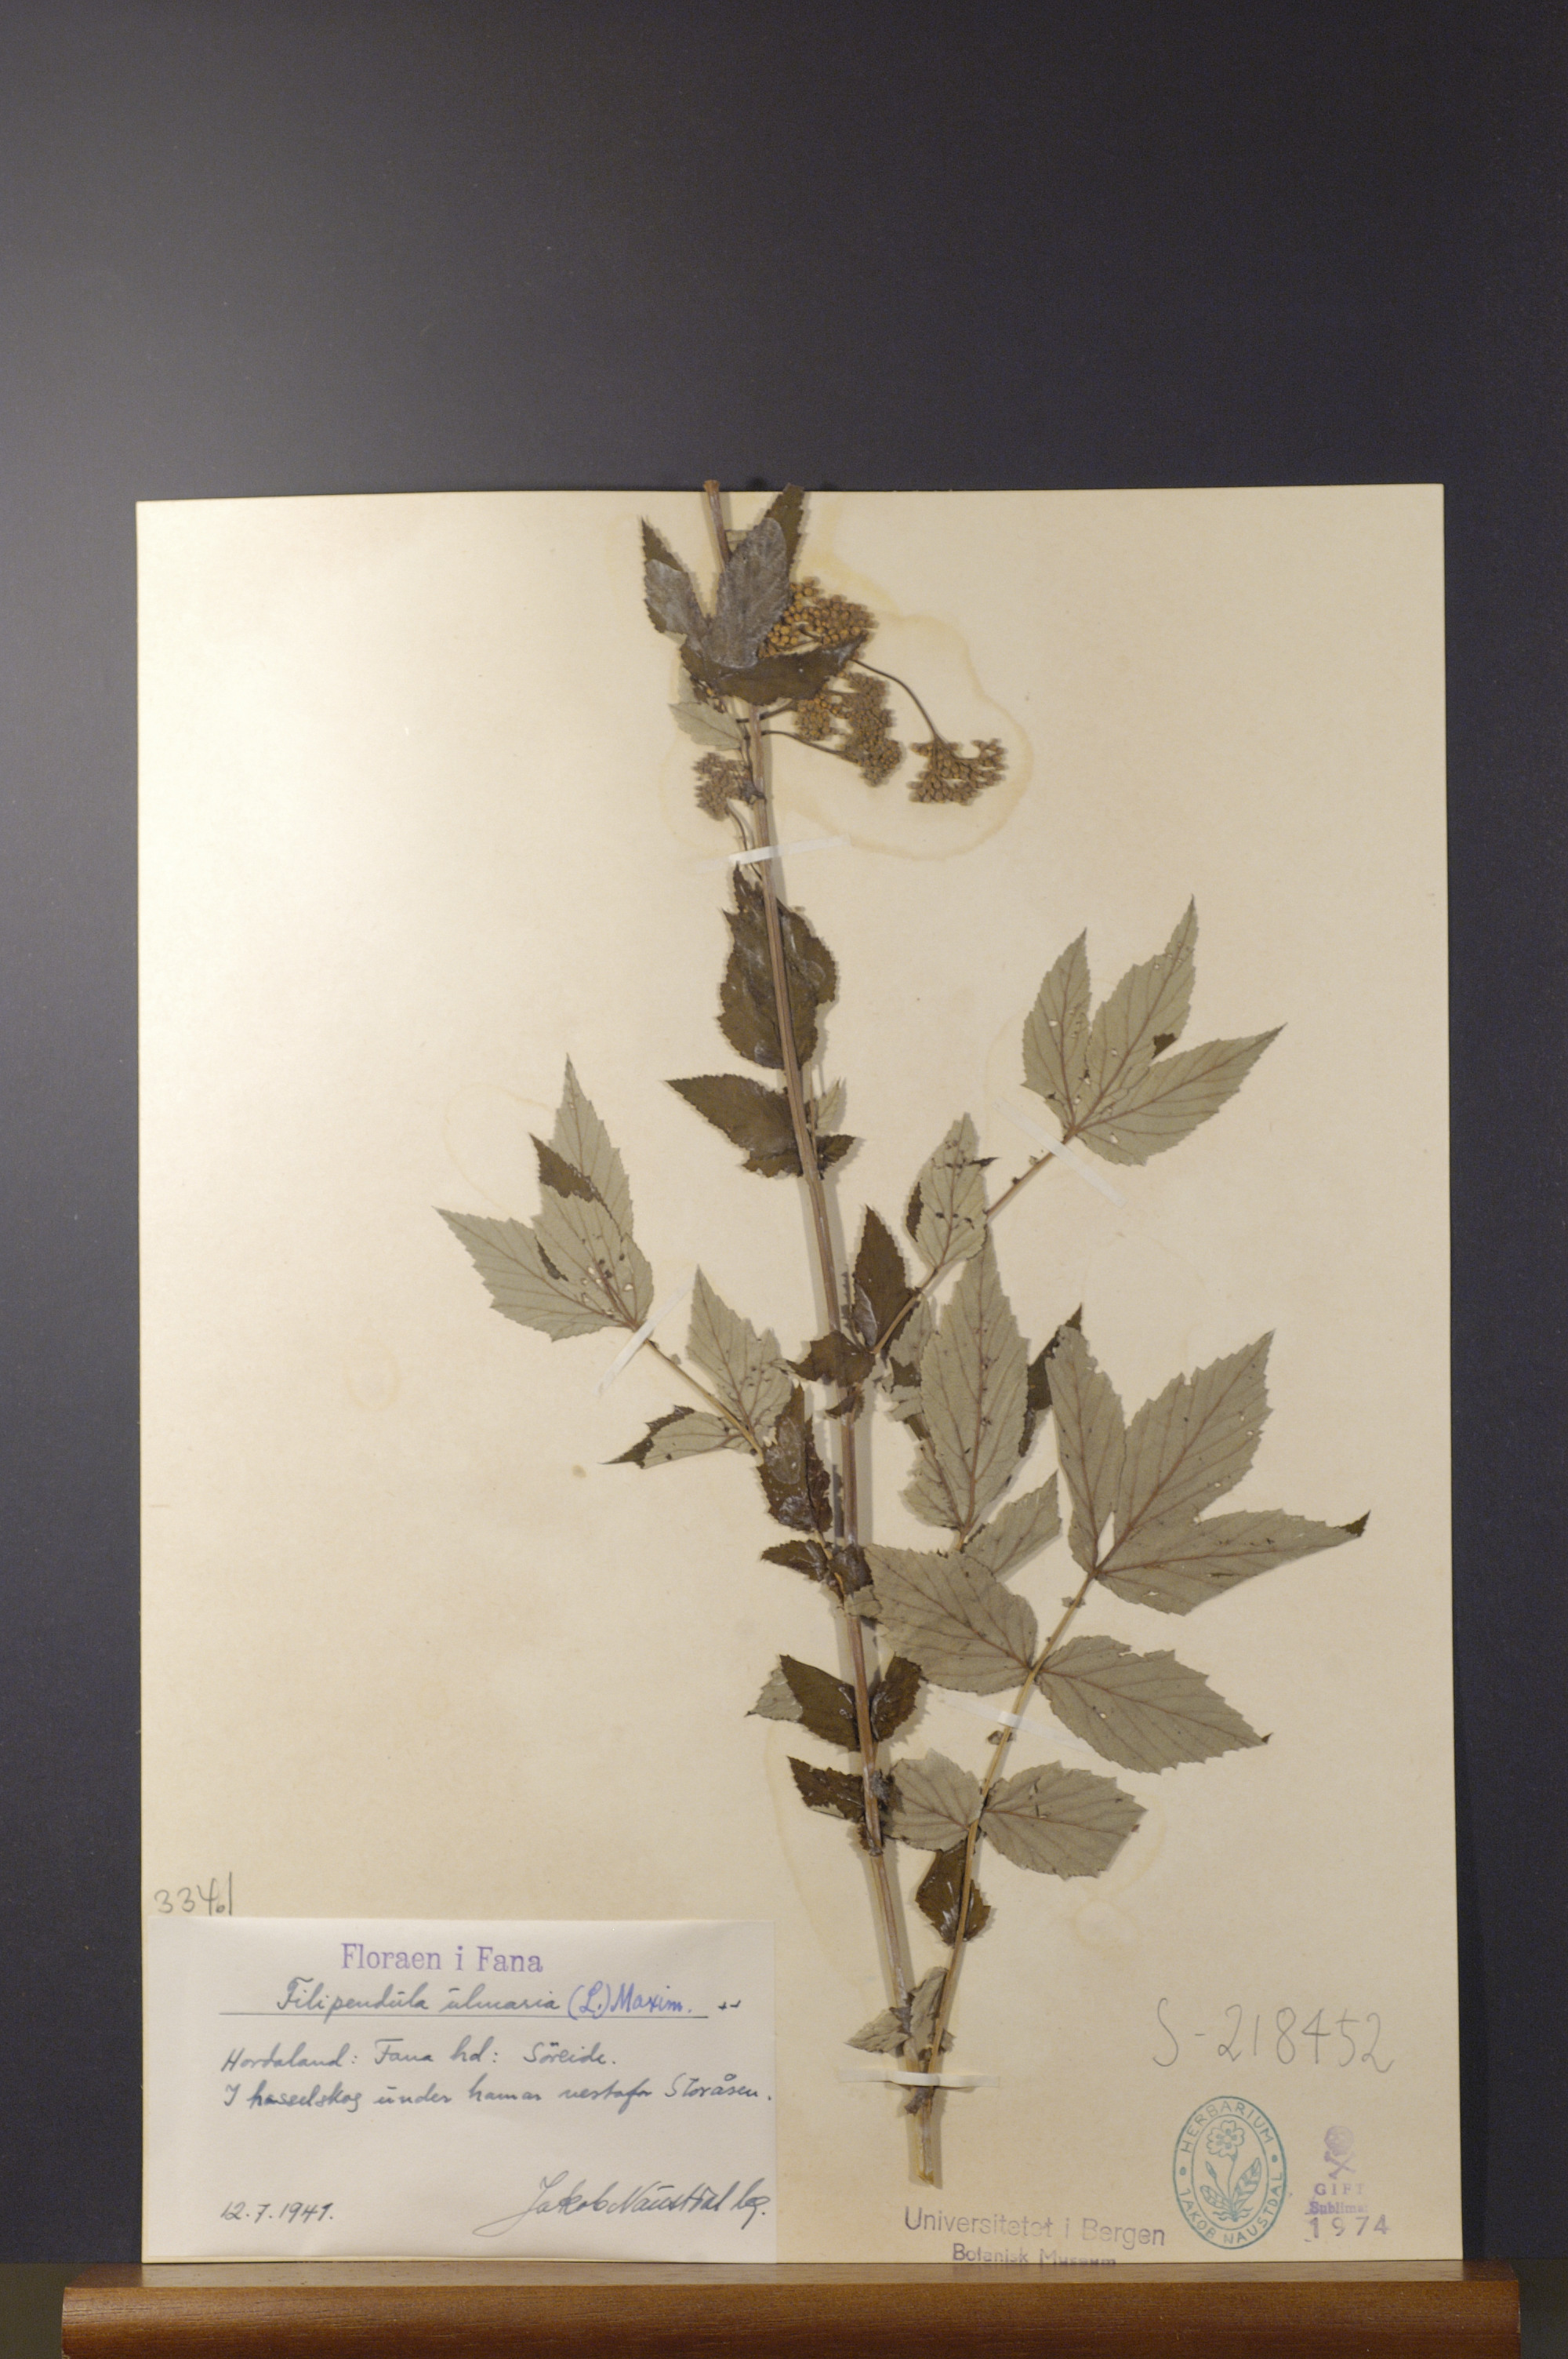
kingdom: Plantae
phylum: Tracheophyta
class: Magnoliopsida
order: Rosales
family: Rosaceae
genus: Filipendula
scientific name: Filipendula ulmaria
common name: Meadowsweet
